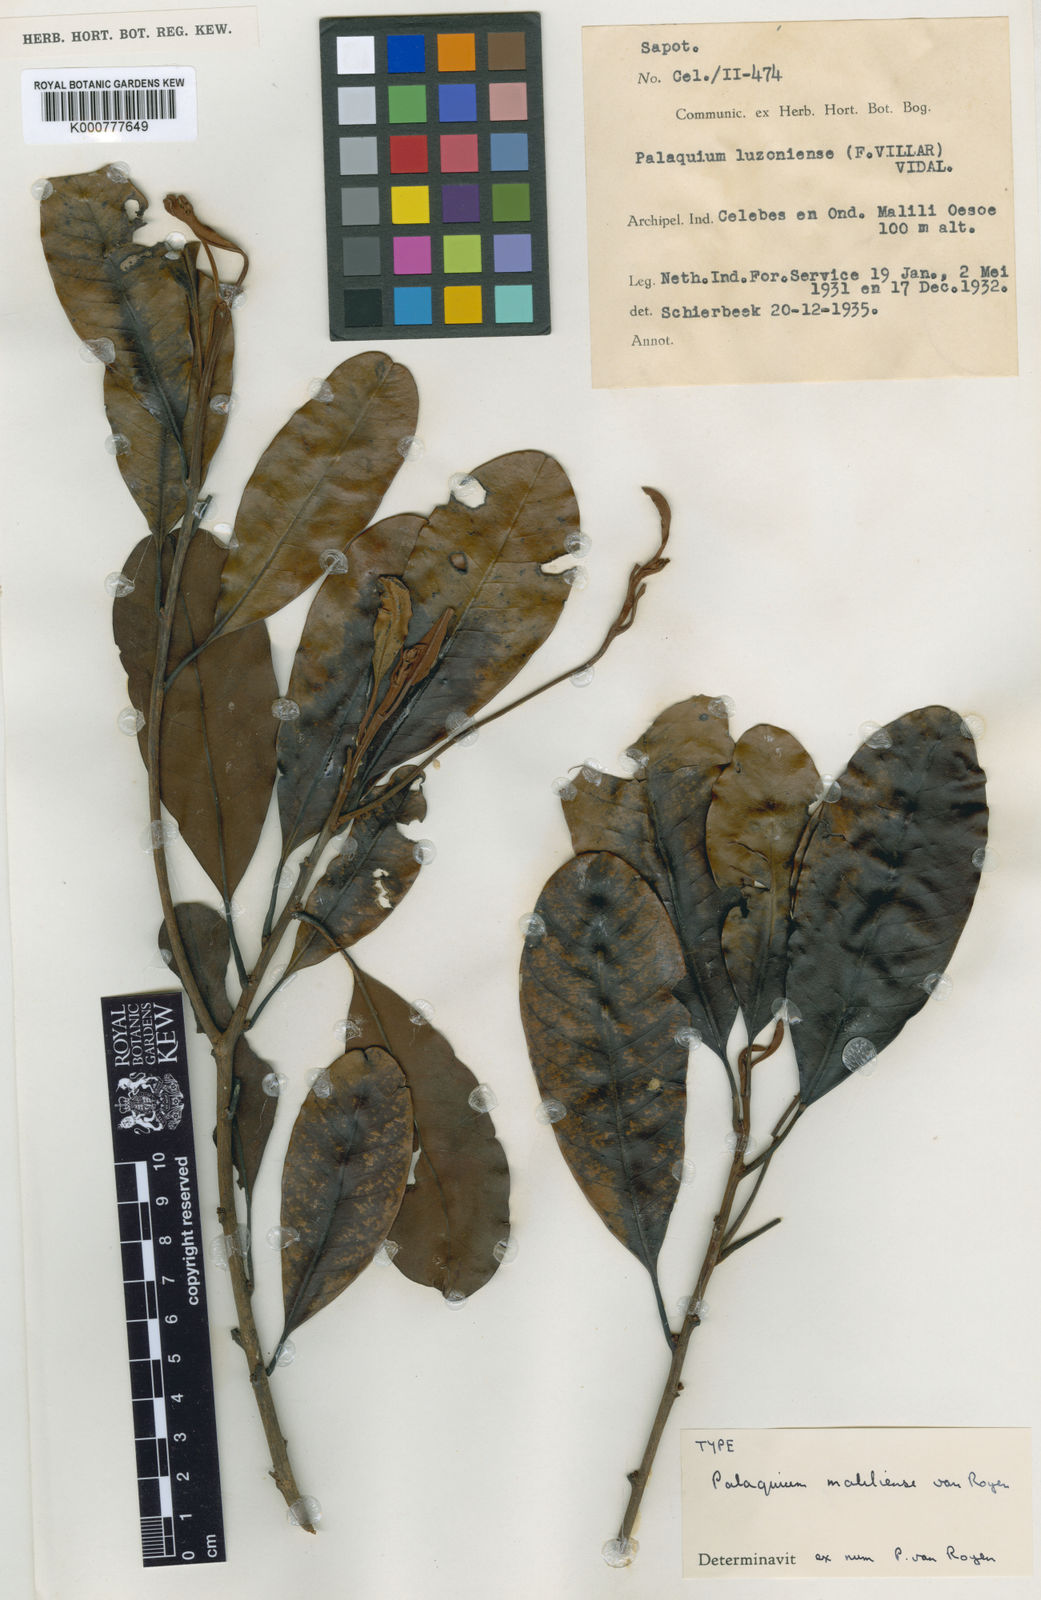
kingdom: Plantae
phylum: Tracheophyta
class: Magnoliopsida
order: Ericales
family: Sapotaceae
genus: Palaquium
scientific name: Palaquium maliliense
